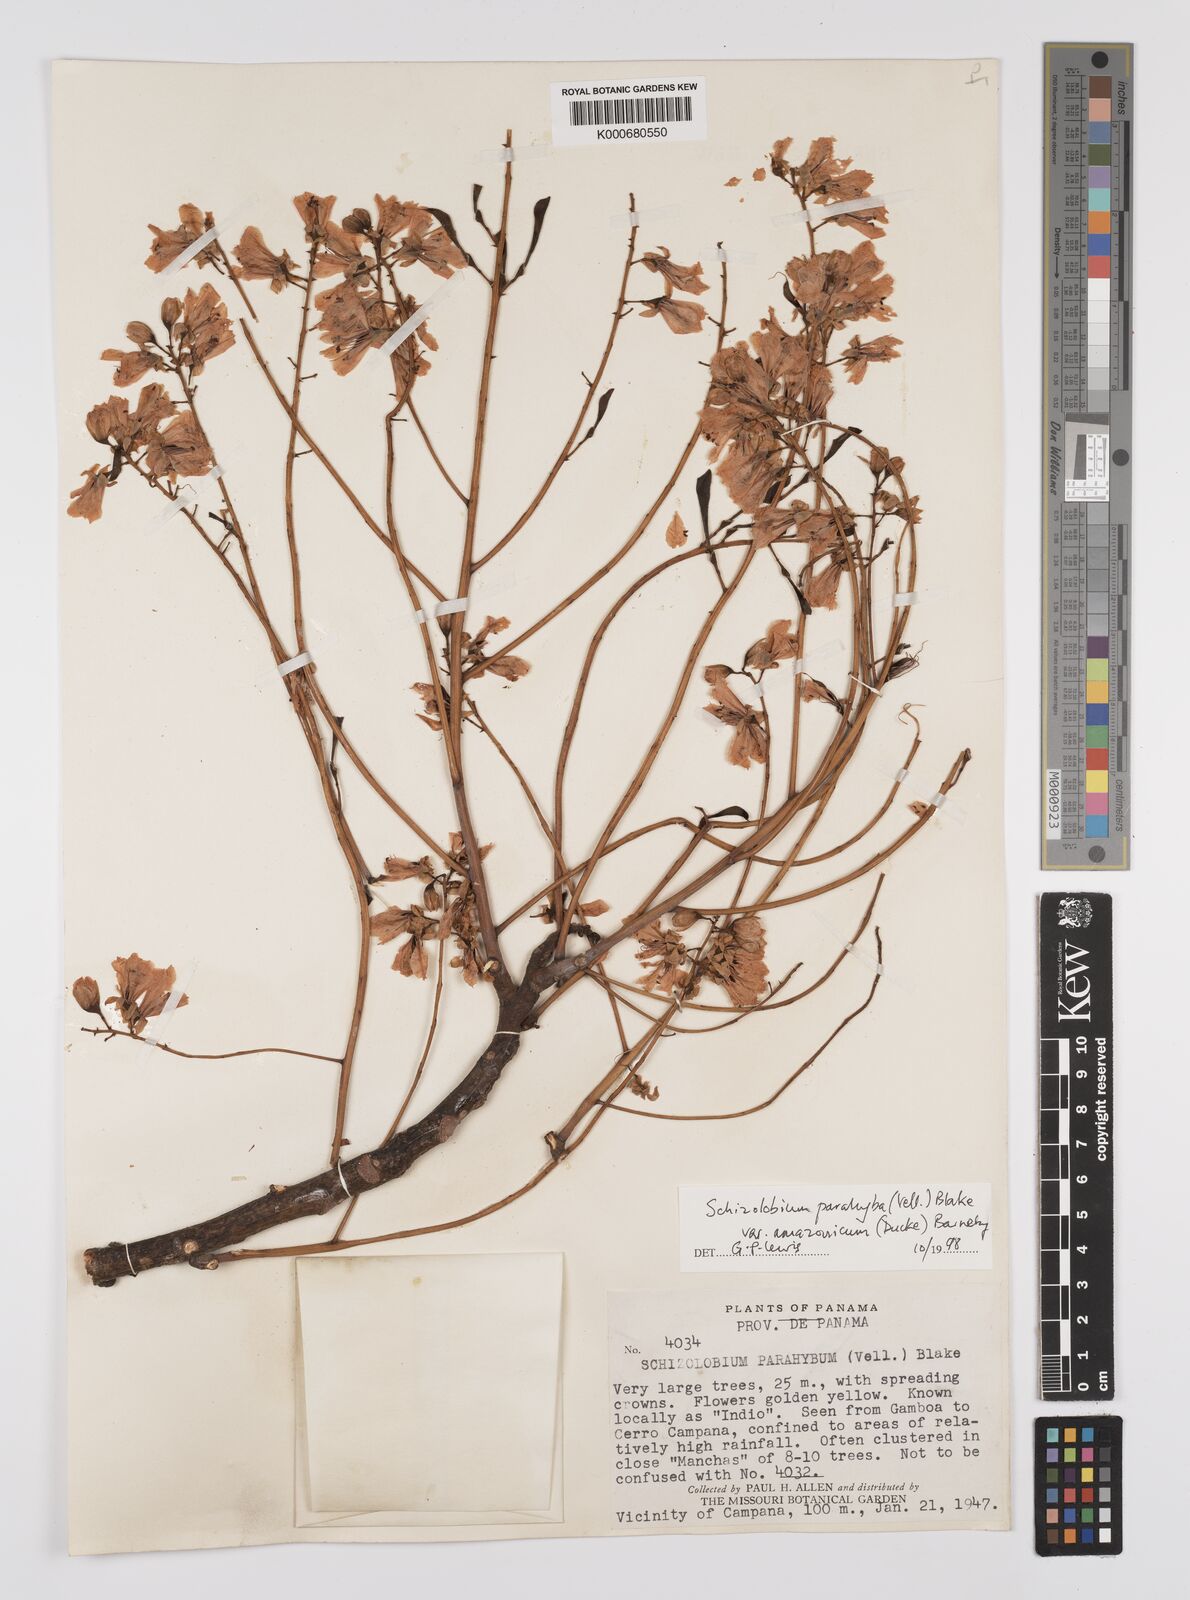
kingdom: Plantae
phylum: Tracheophyta
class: Magnoliopsida
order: Fabales
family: Fabaceae
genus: Schizolobium
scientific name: Schizolobium parahyba
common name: Brazilian firetree
